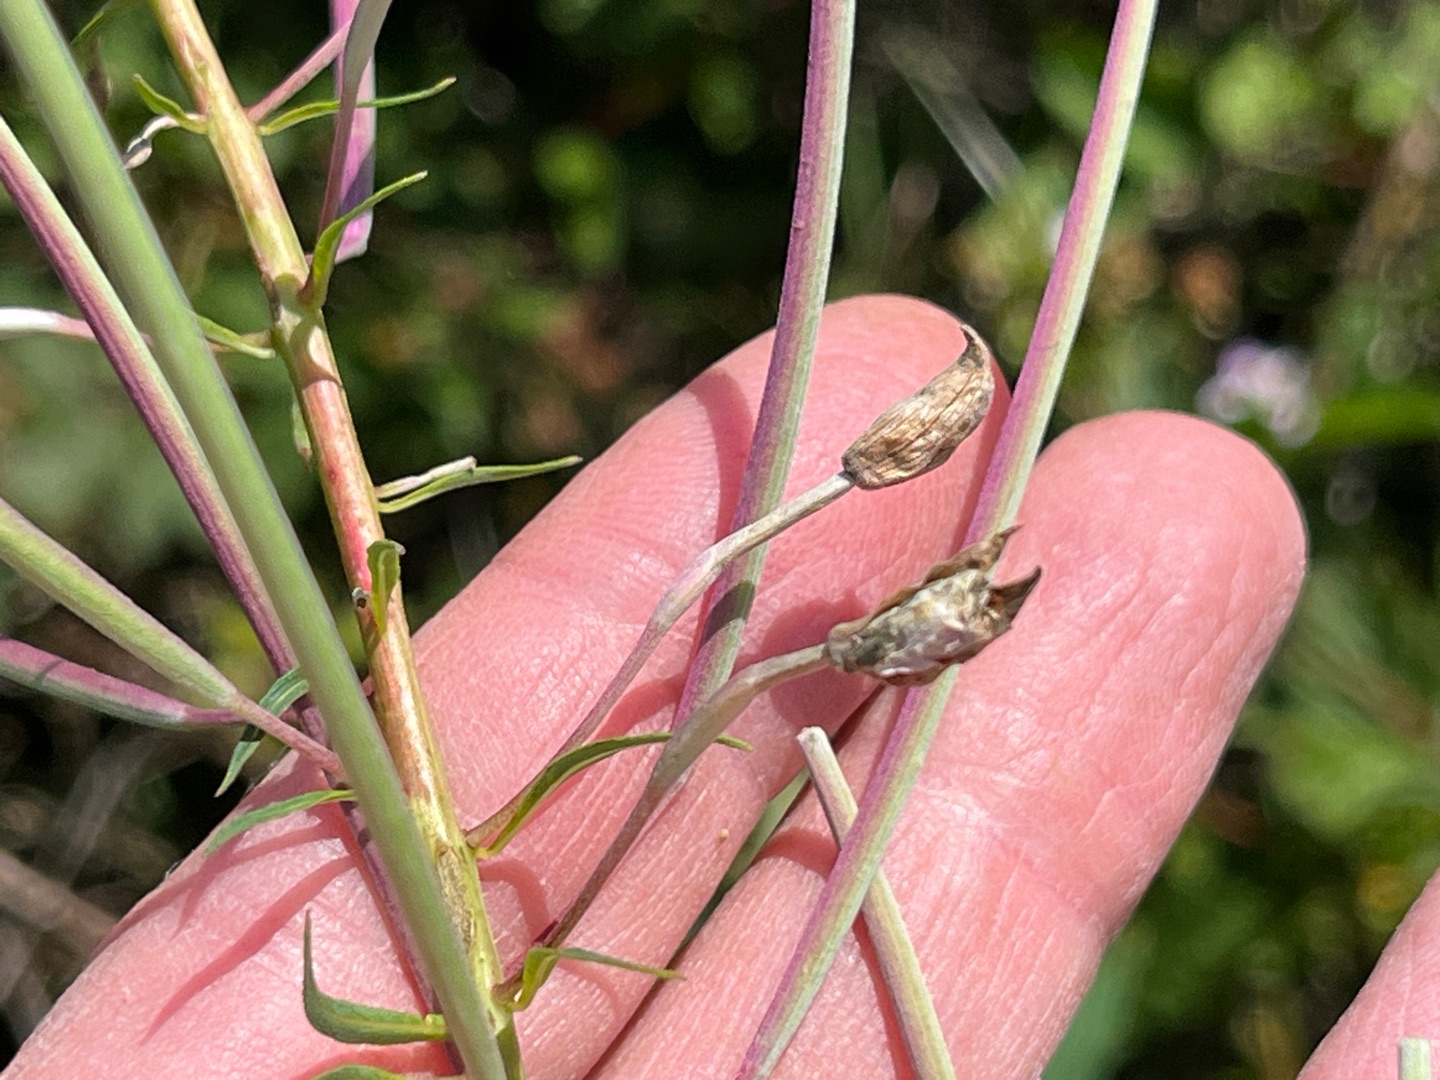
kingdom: Animalia
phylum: Arthropoda
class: Insecta
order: Diptera
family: Cecidomyiidae
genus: Dasineura
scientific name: Dasineura epilobii
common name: Gederamsblomstgalmyg
